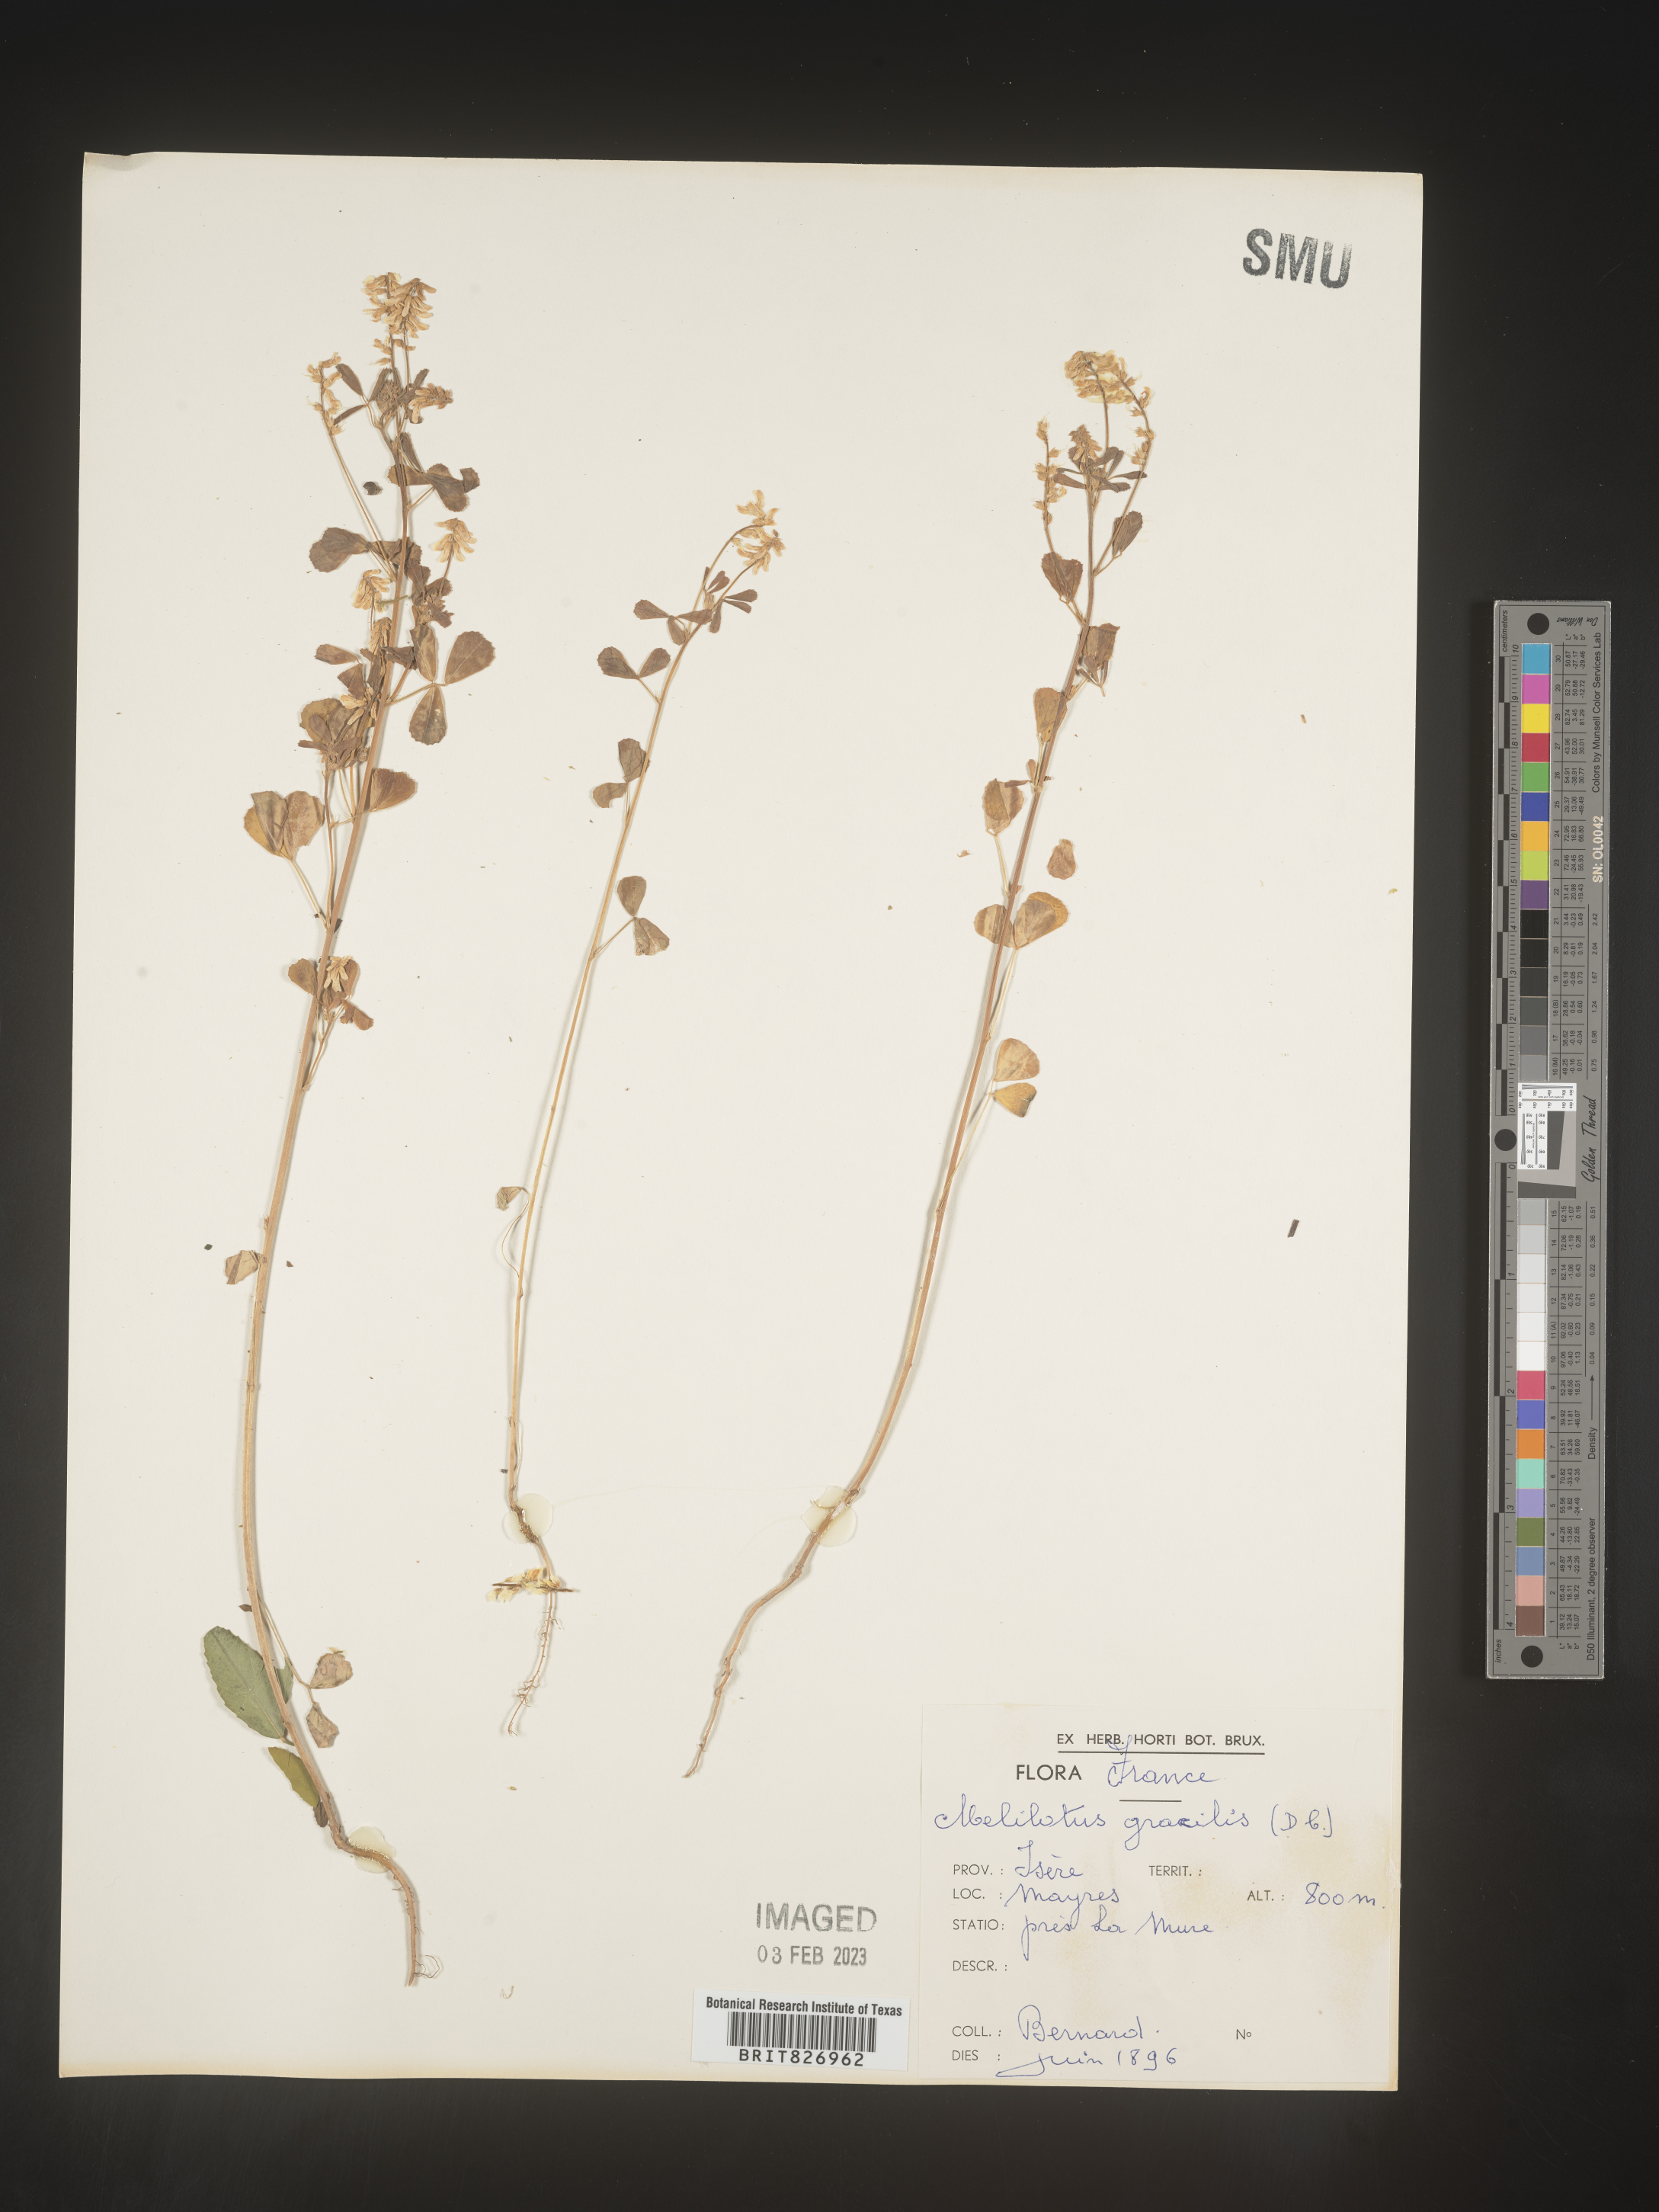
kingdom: Plantae
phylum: Tracheophyta
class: Magnoliopsida
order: Fabales
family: Fabaceae
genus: Melilotus
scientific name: Melilotus
